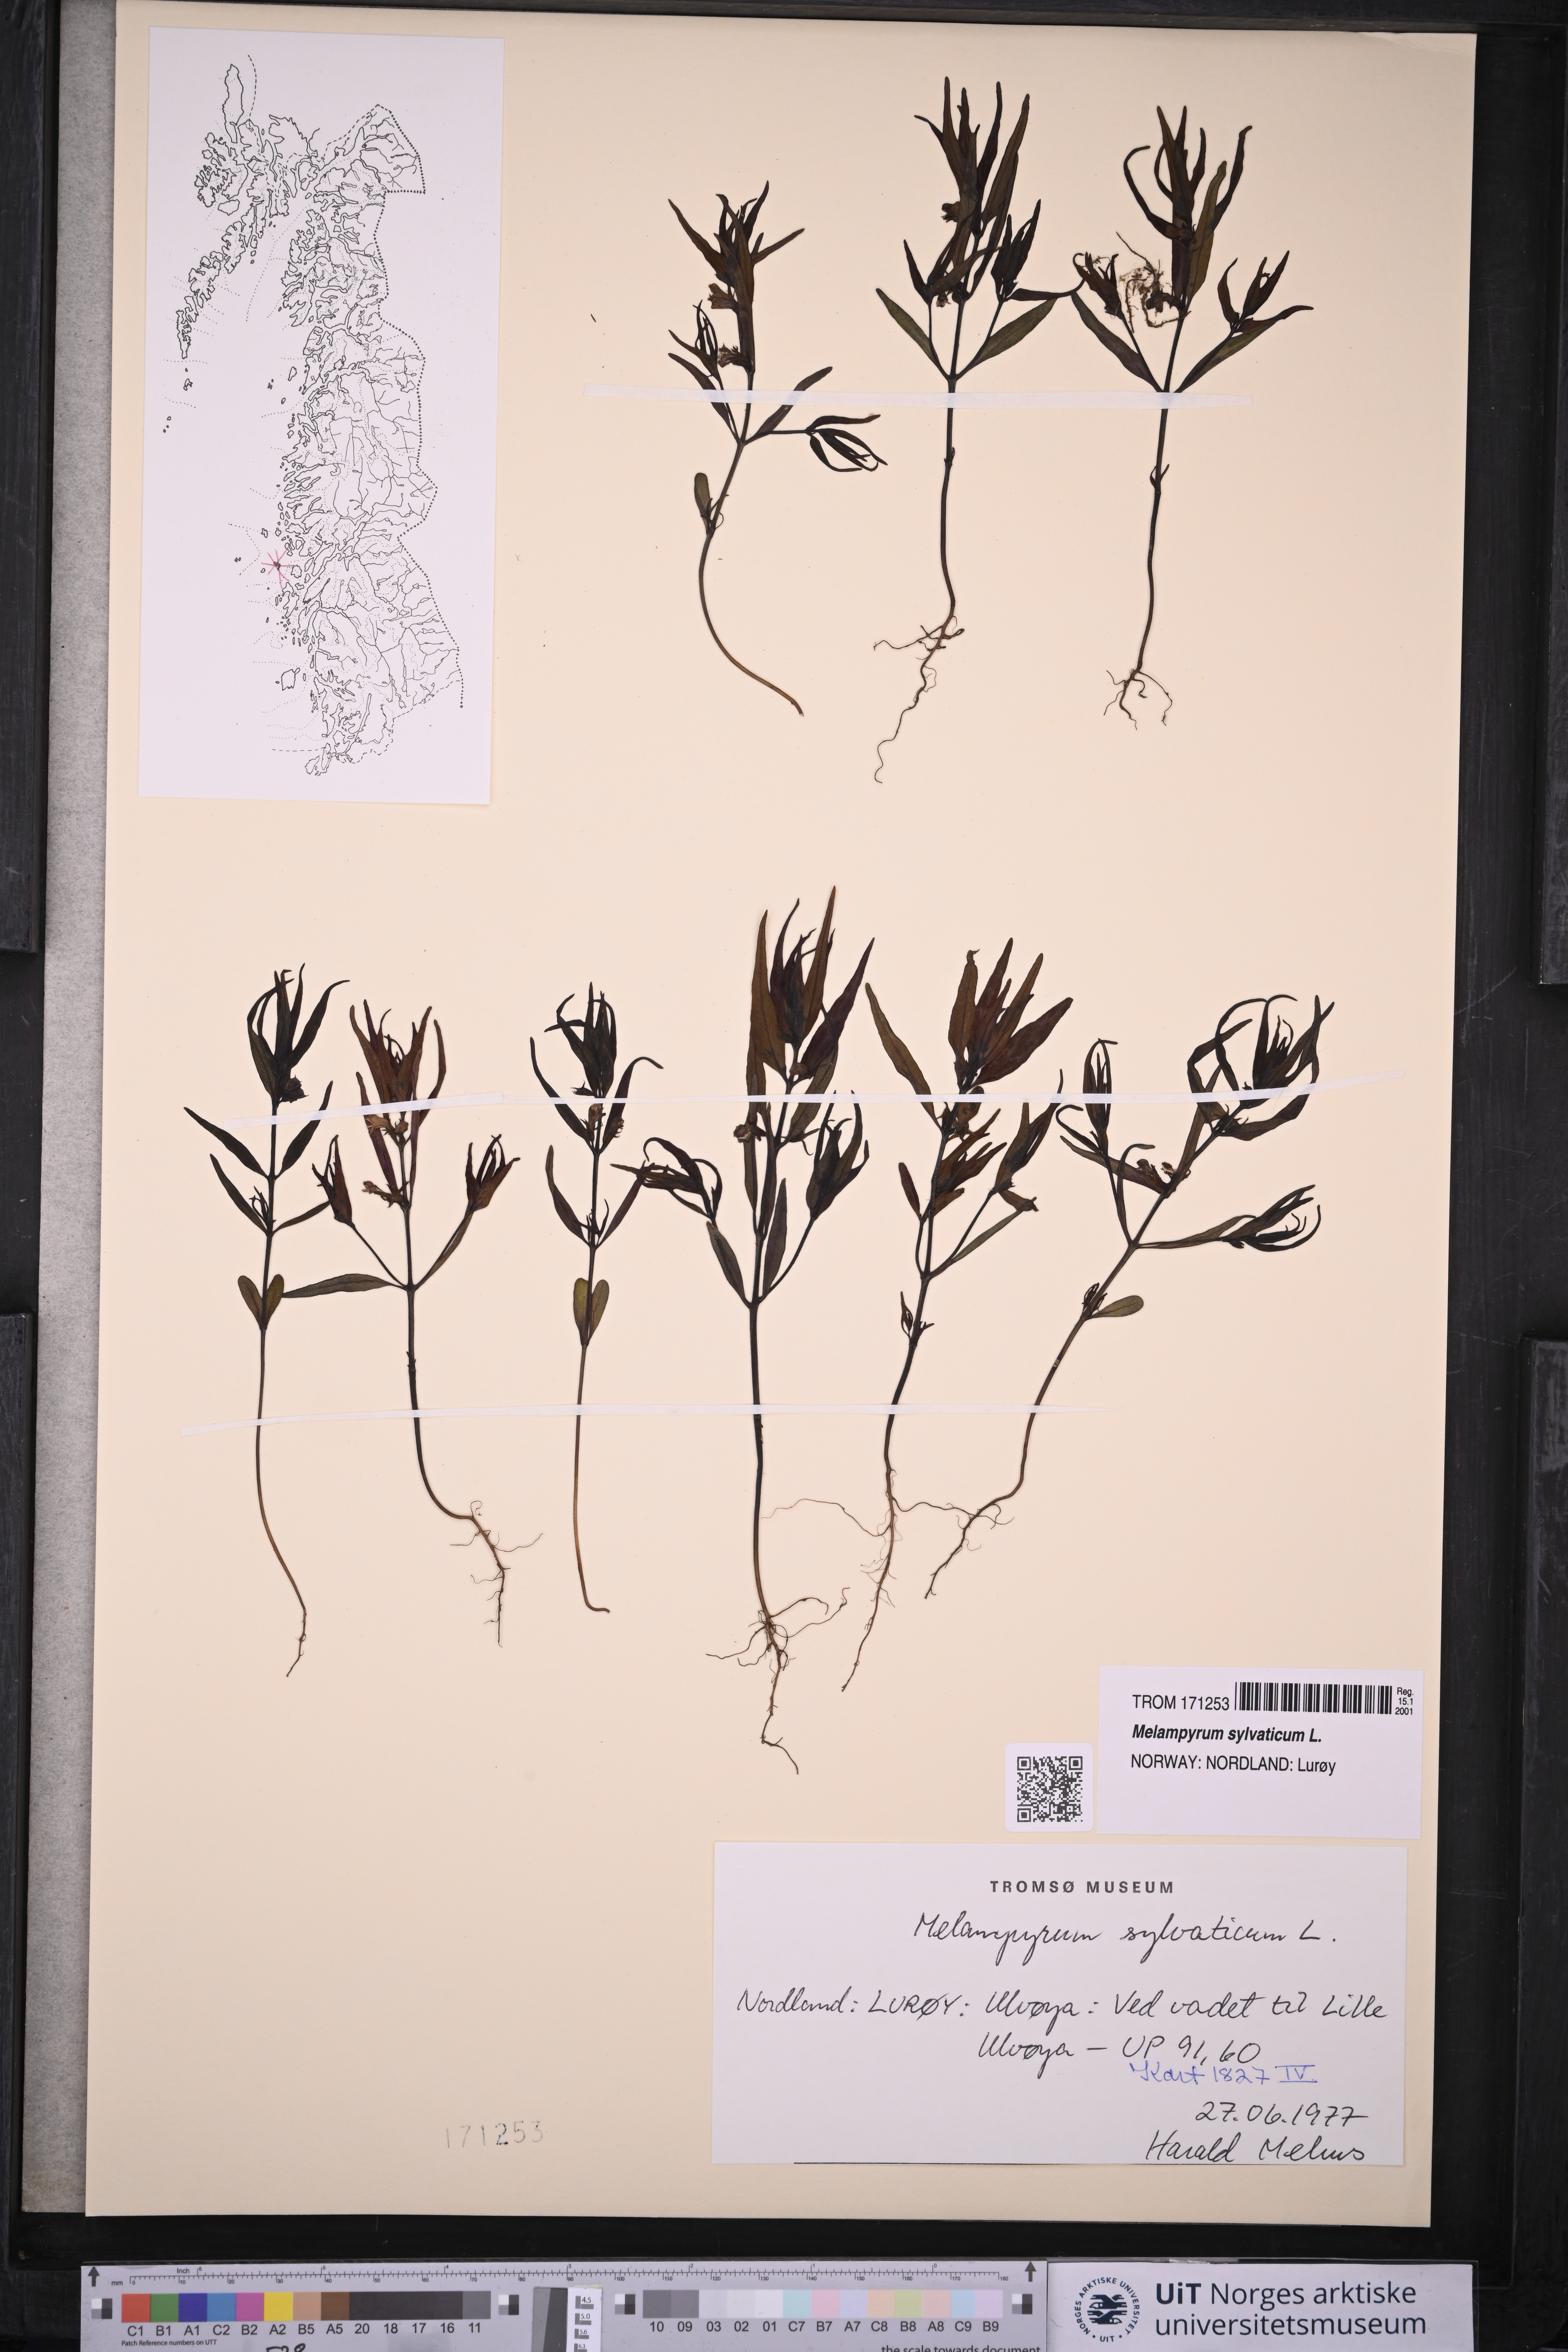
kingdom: Plantae
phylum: Tracheophyta
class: Magnoliopsida
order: Lamiales
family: Orobanchaceae
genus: Melampyrum
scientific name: Melampyrum sylvaticum
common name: Small cow-wheat
